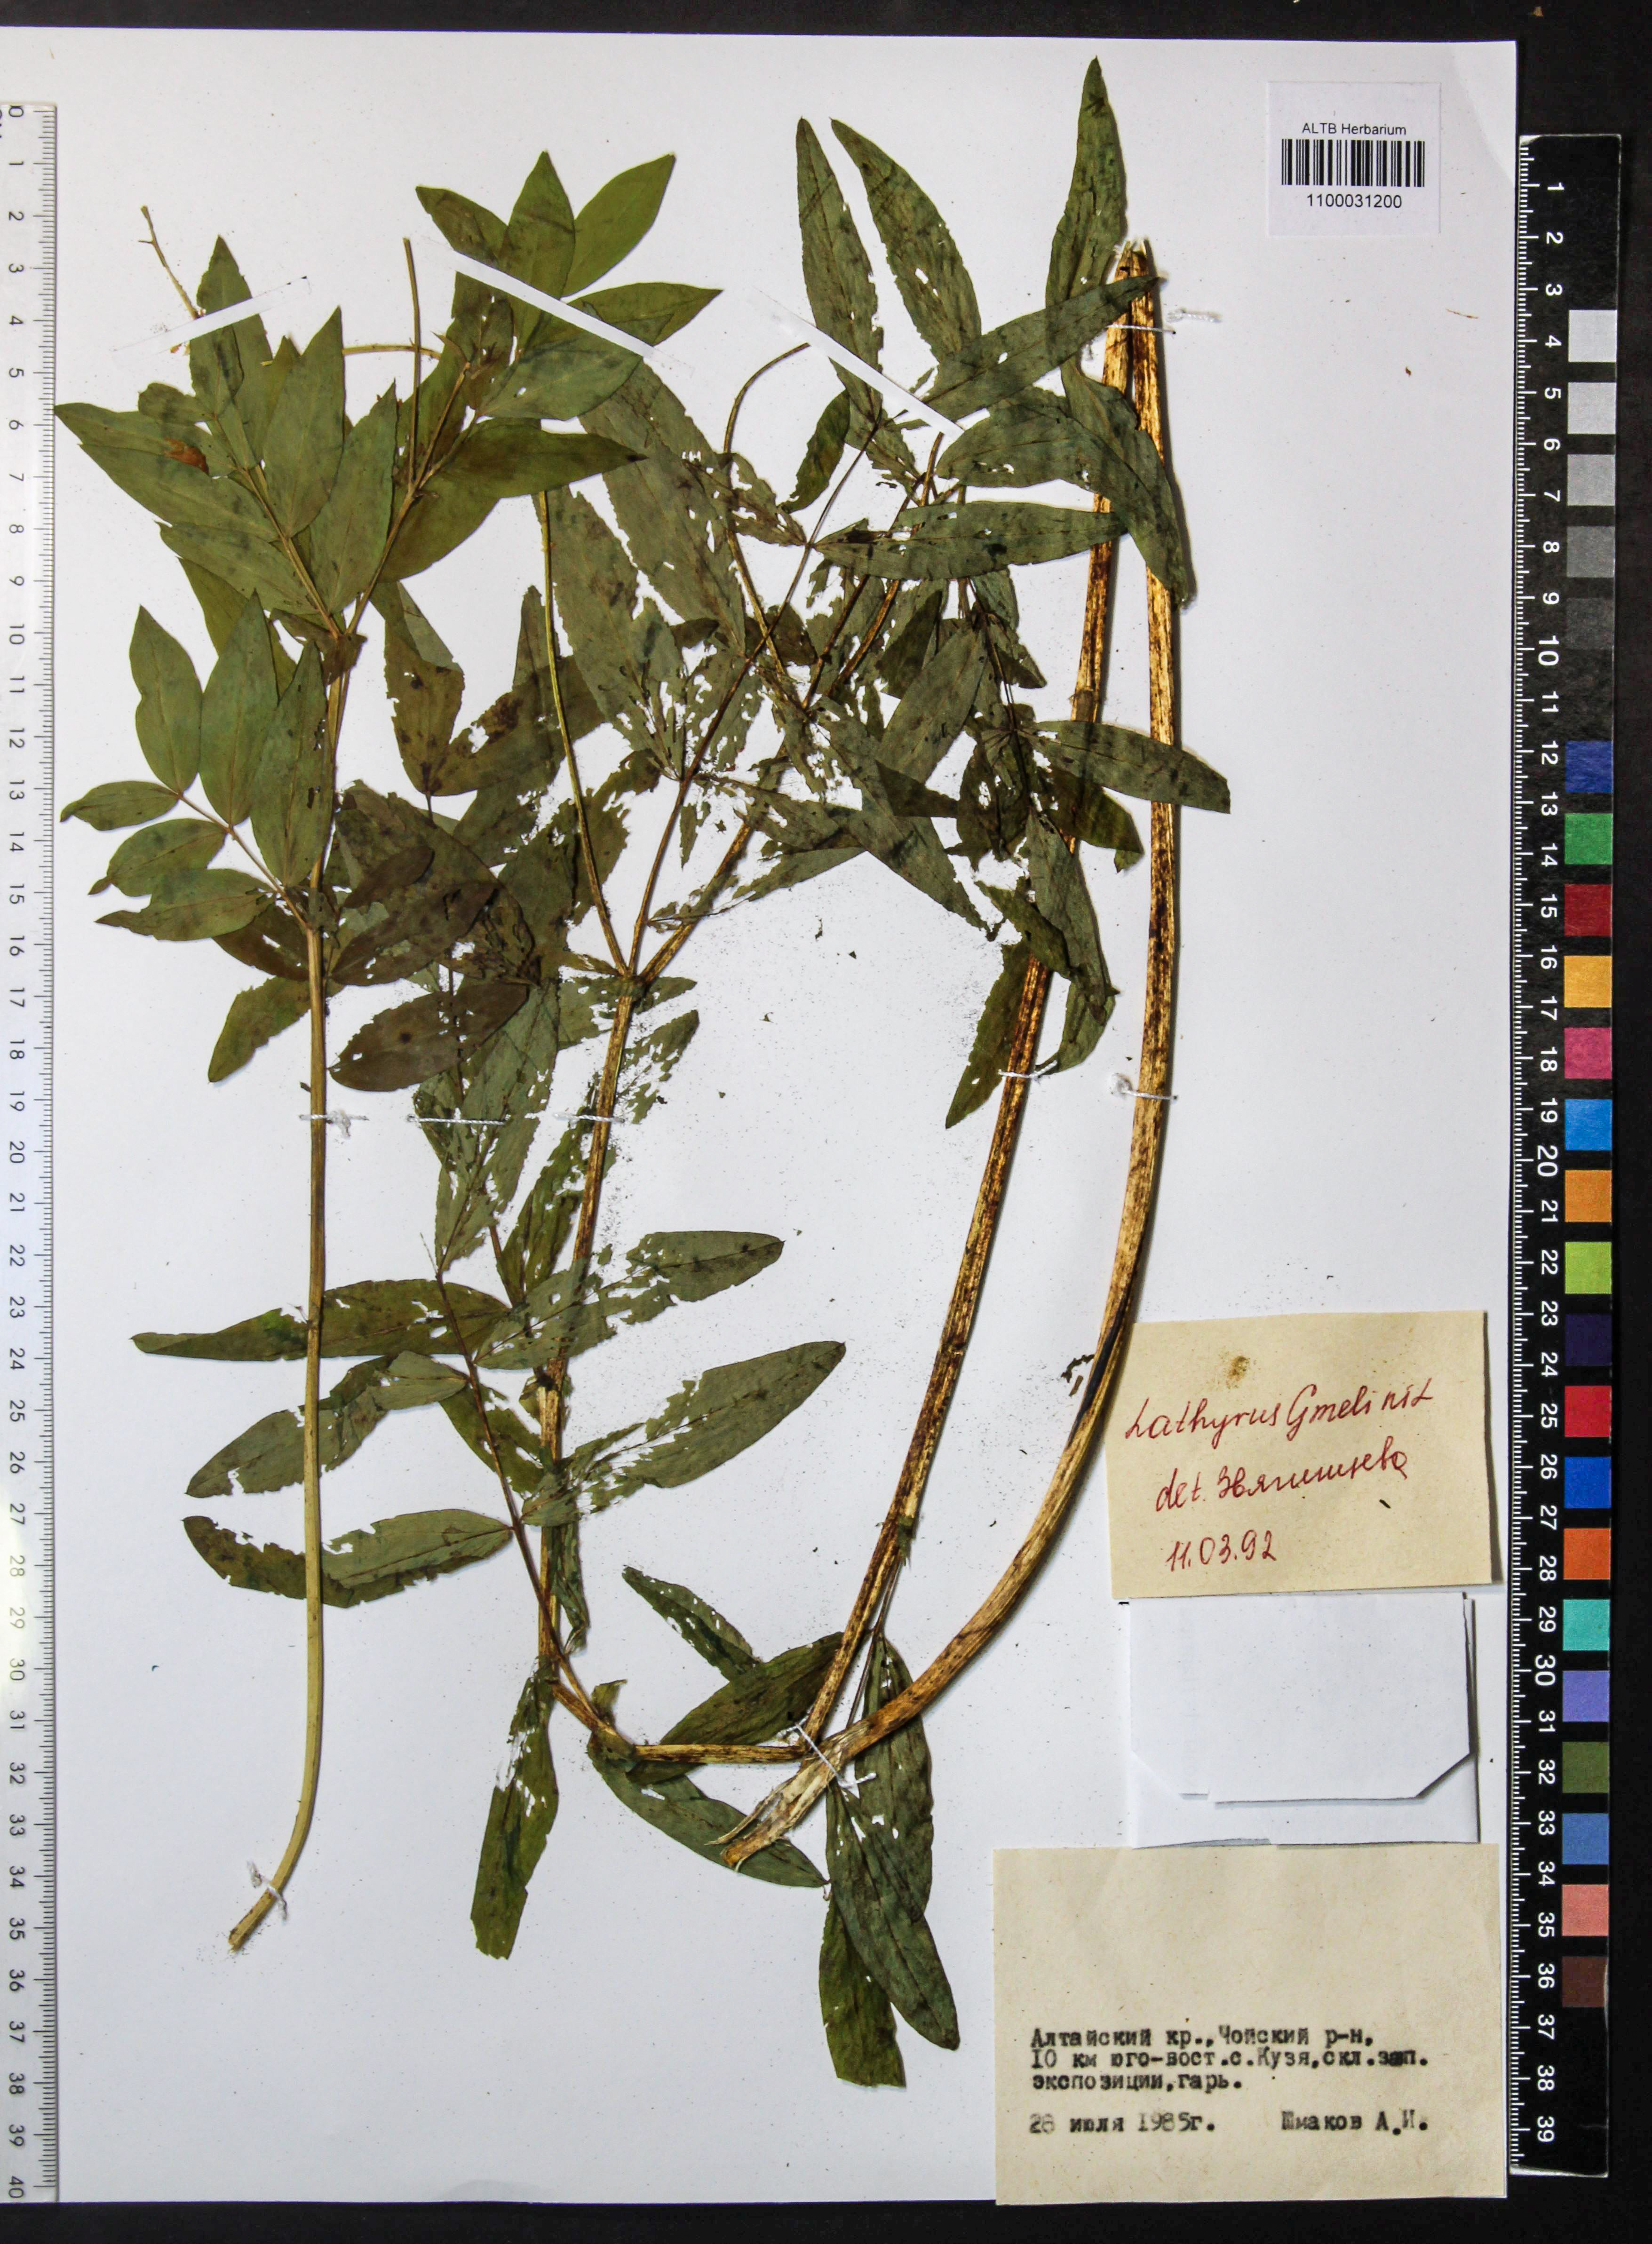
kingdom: Plantae
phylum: Tracheophyta
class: Magnoliopsida
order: Fabales
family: Fabaceae
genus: Lathyrus
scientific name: Lathyrus gmelinii
